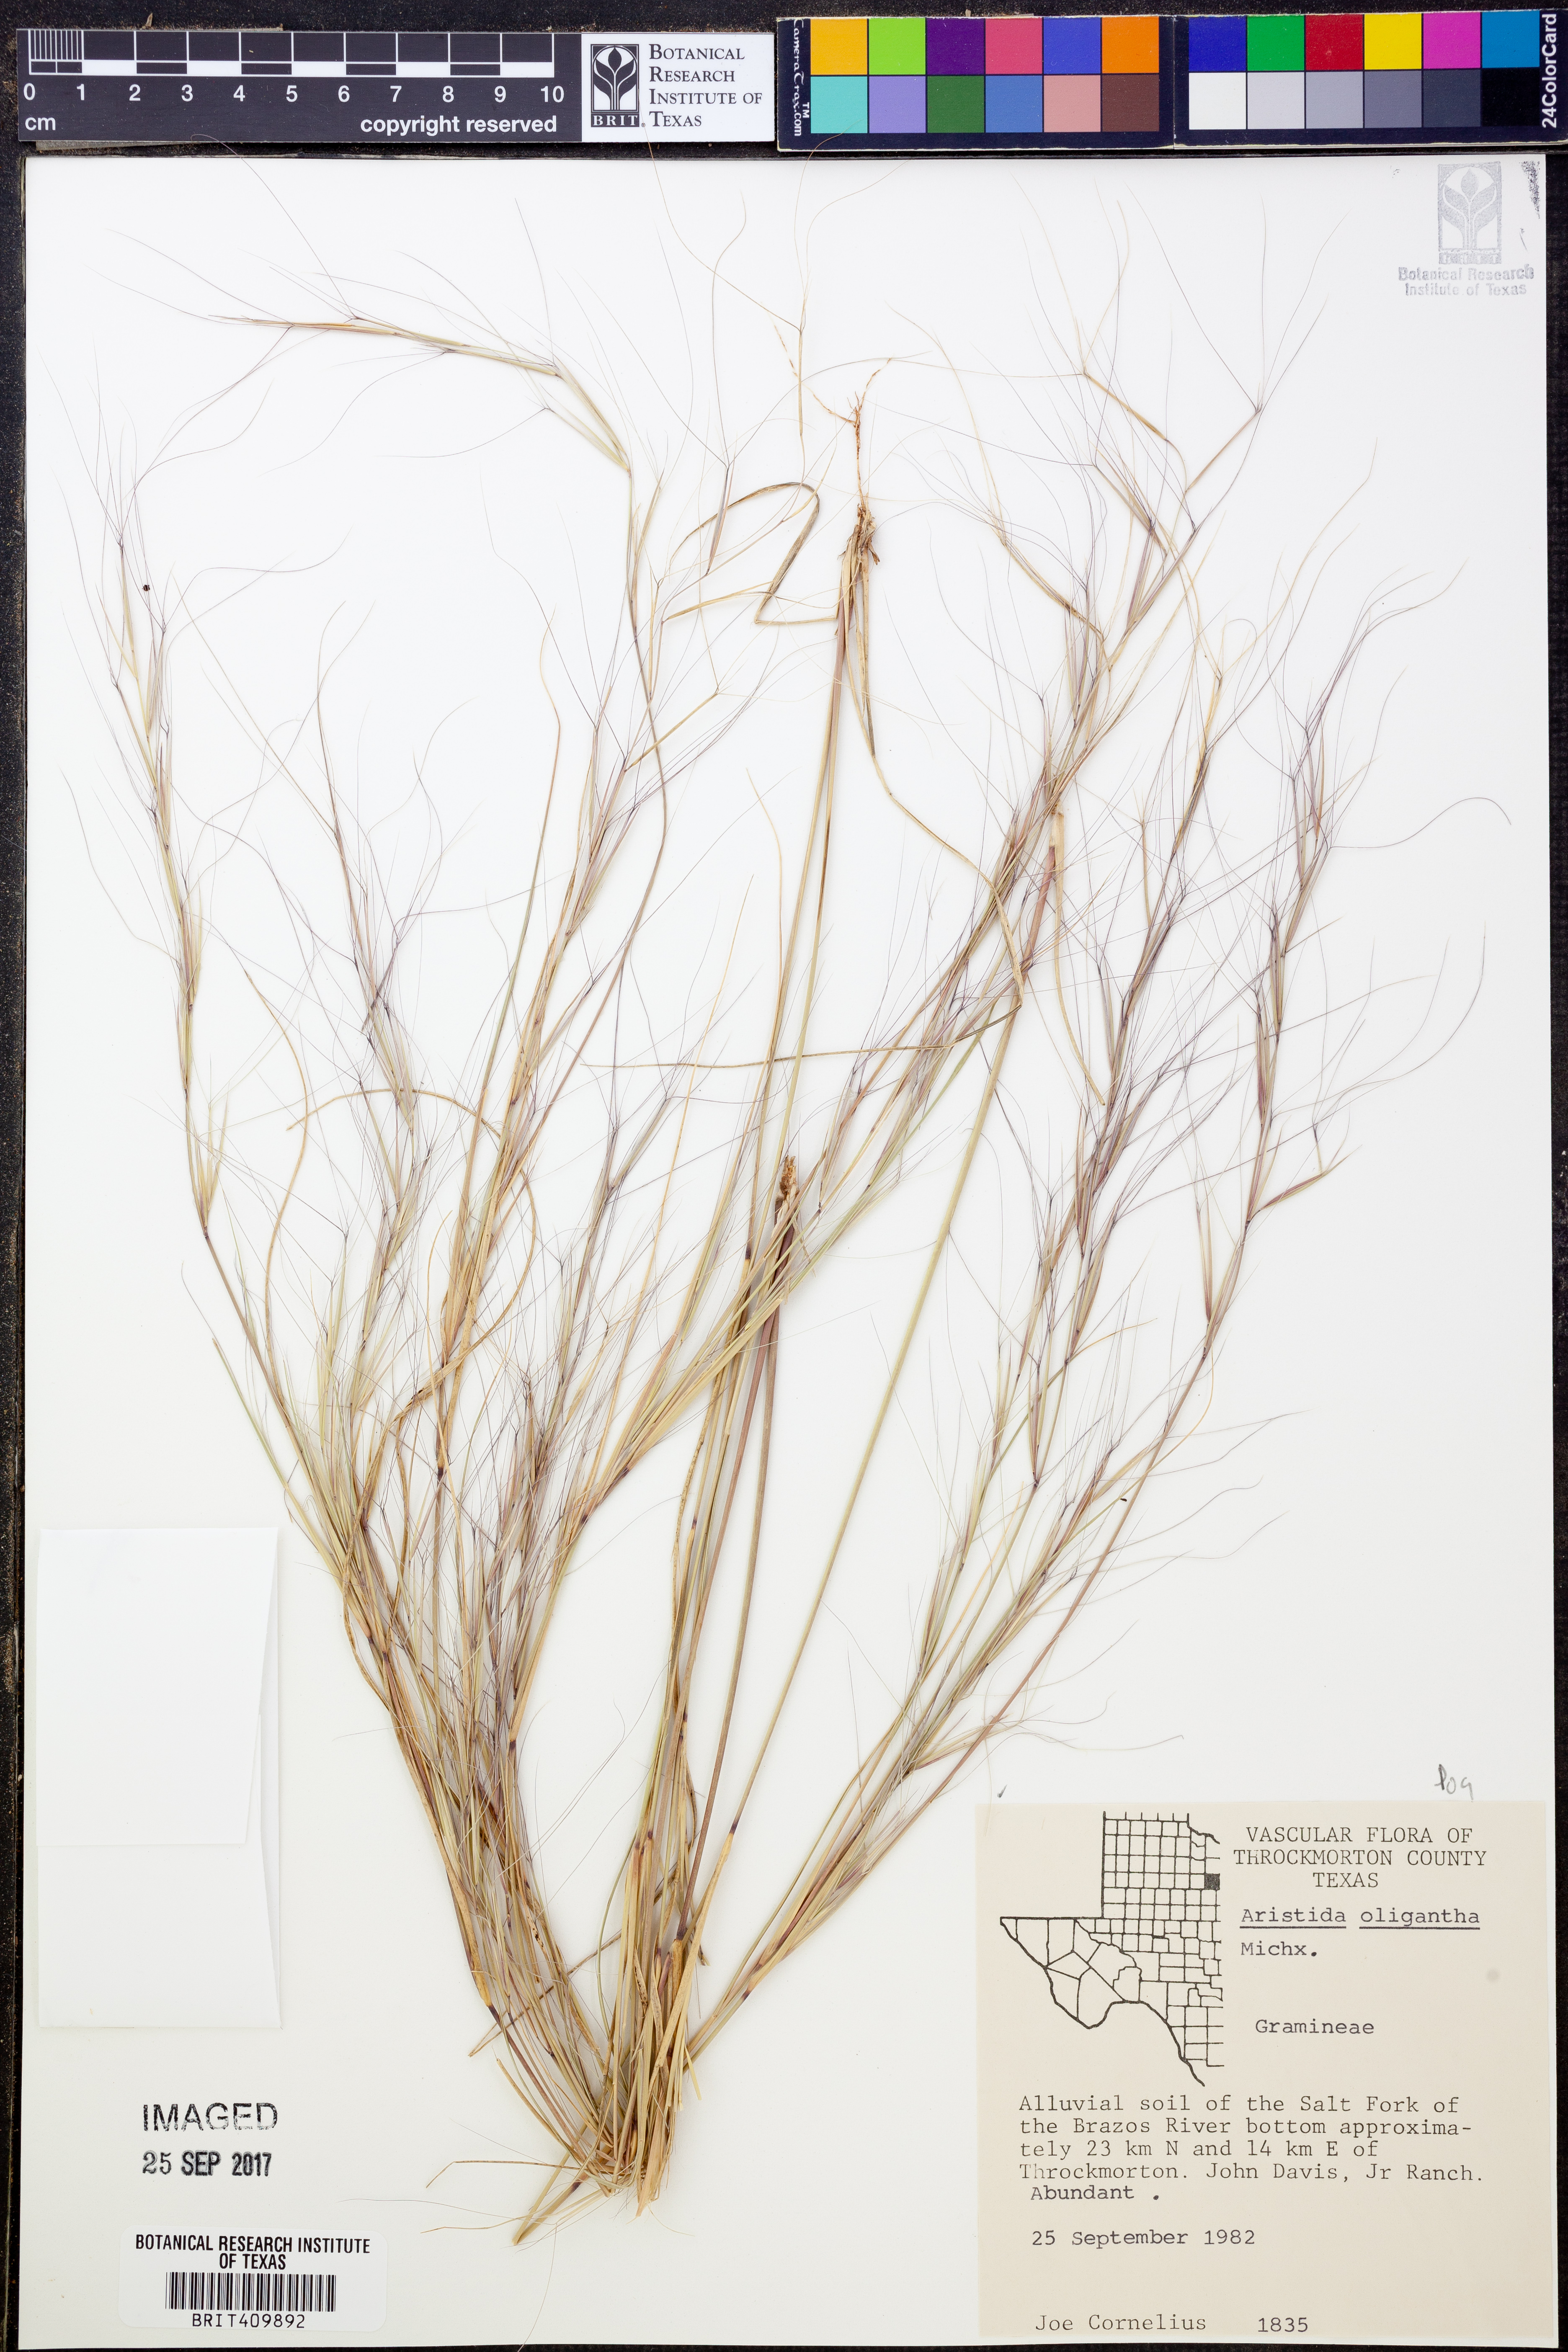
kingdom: Plantae
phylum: Tracheophyta
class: Liliopsida
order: Poales
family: Poaceae
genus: Aristida
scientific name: Aristida oligantha
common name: Few-flowered aristida
